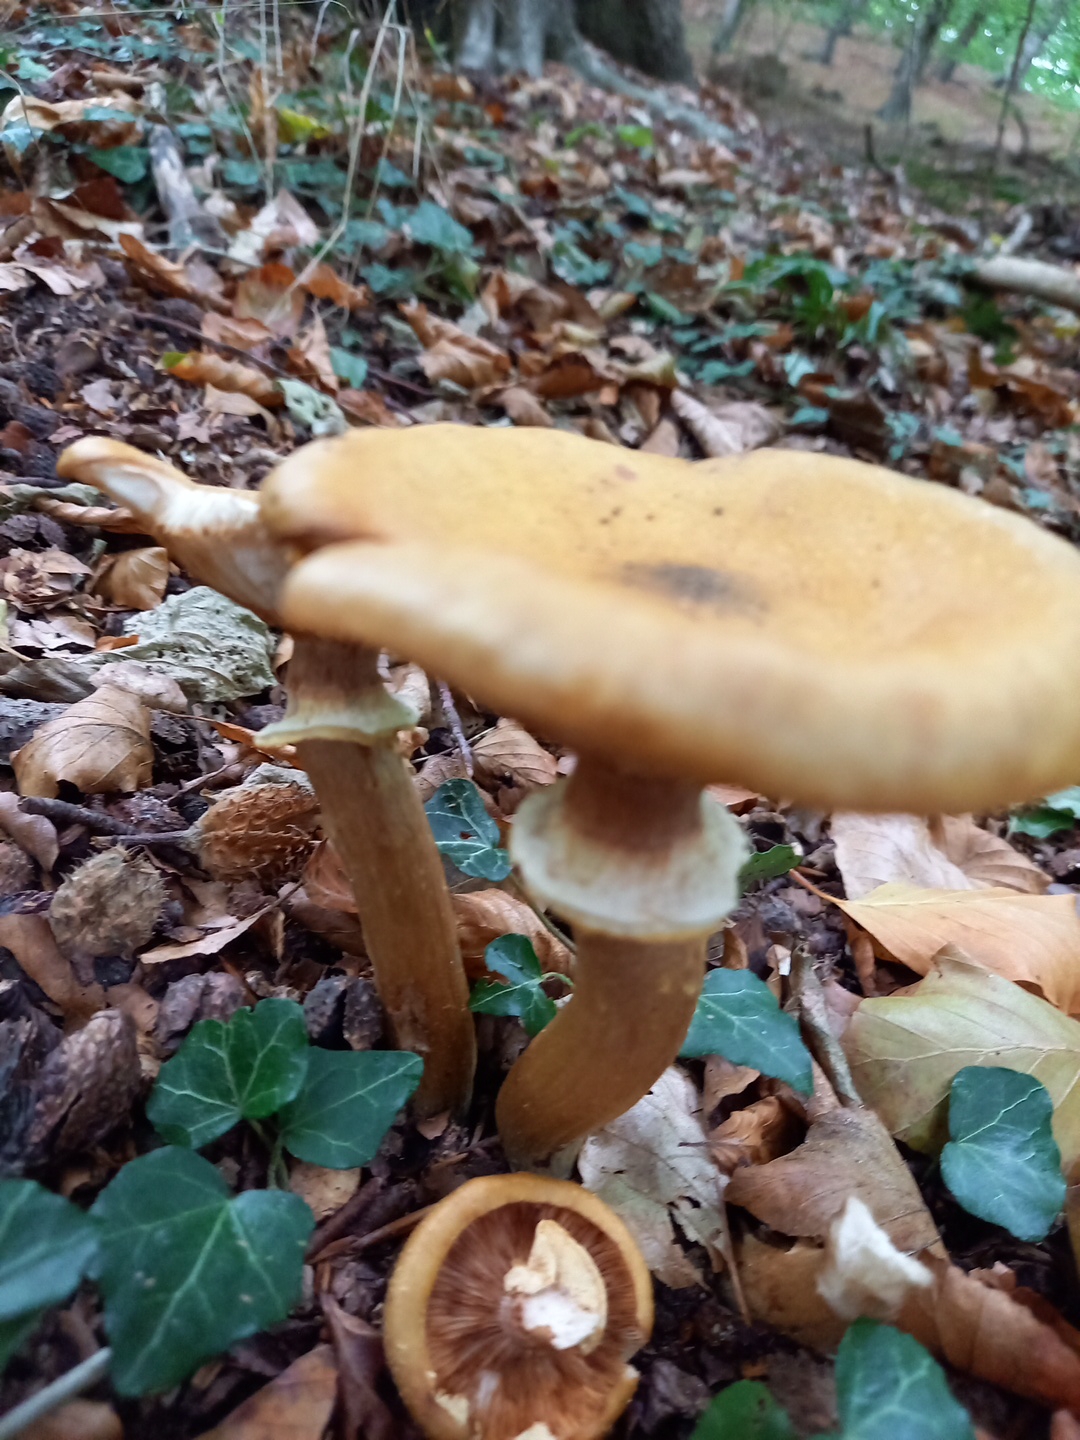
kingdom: Fungi
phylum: Basidiomycota
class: Agaricomycetes
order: Agaricales
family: Physalacriaceae
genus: Armillaria
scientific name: Armillaria mellea
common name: ægte honningsvamp
